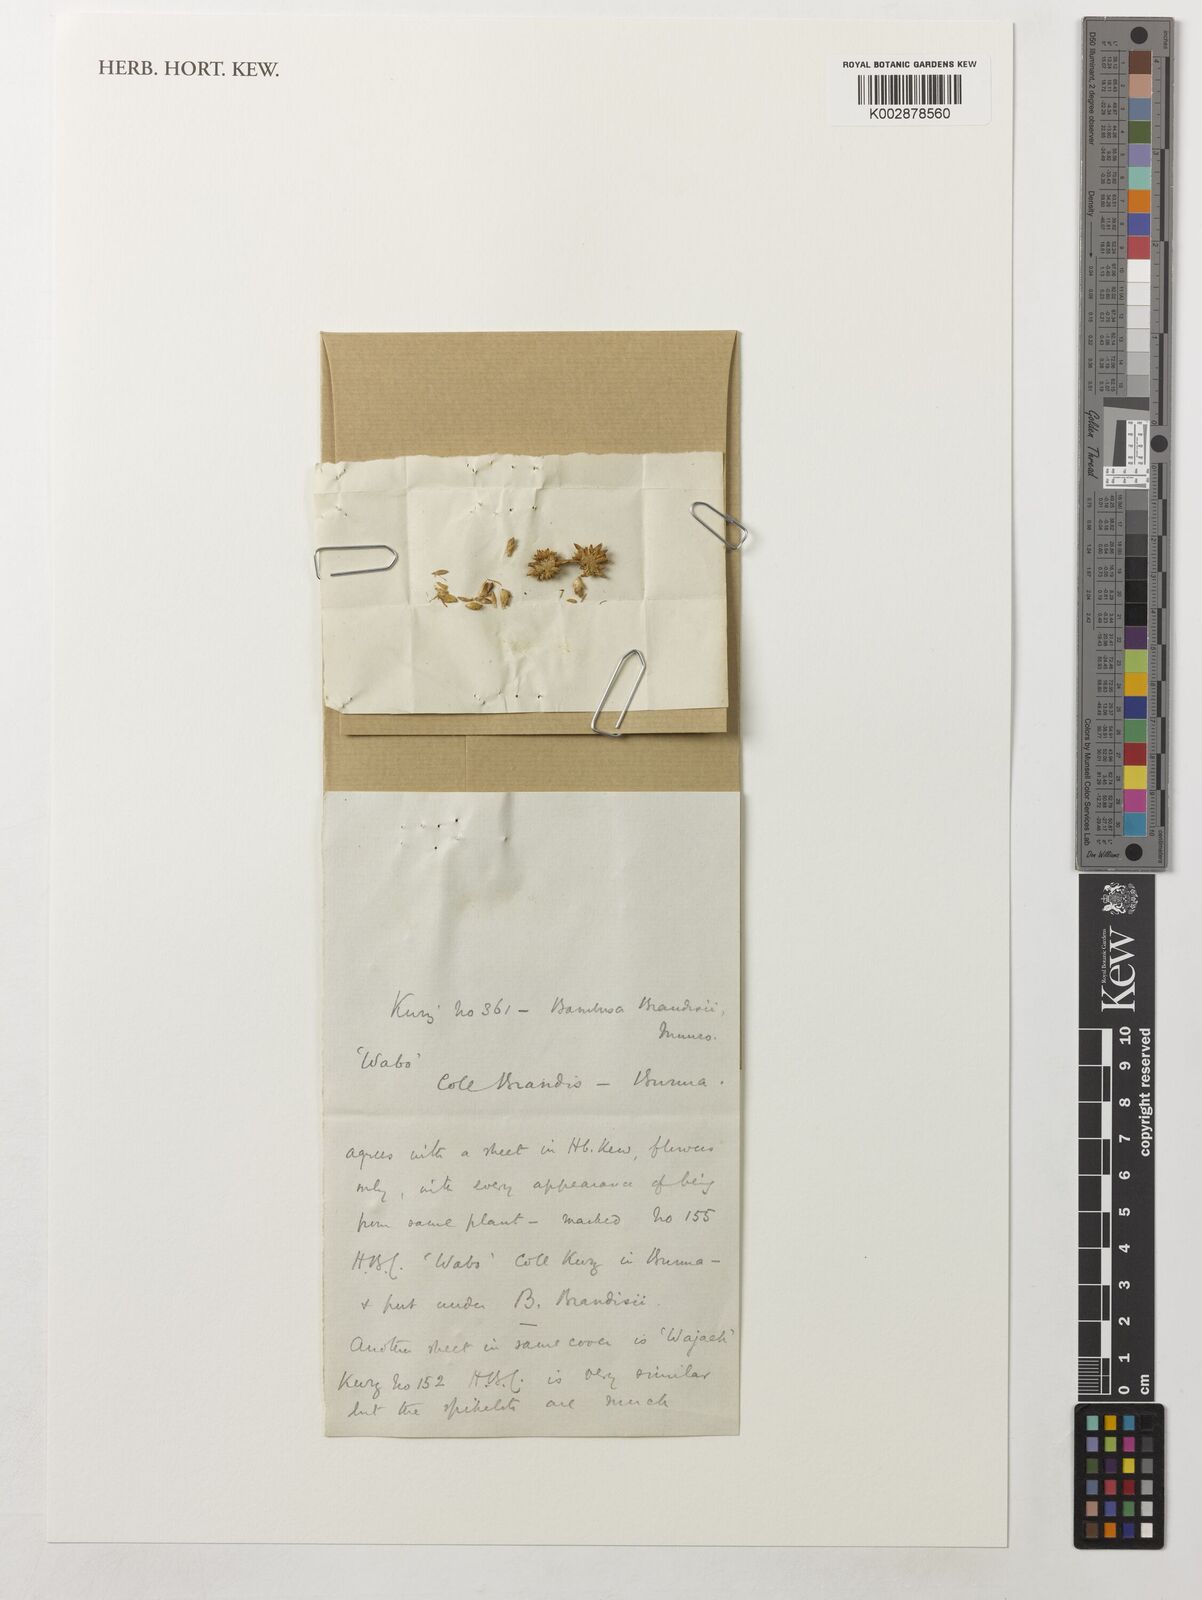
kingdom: Plantae
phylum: Tracheophyta
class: Liliopsida
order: Poales
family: Poaceae
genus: Dendrocalamus
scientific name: Dendrocalamus brandisii
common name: Velvetleaf bamboo
